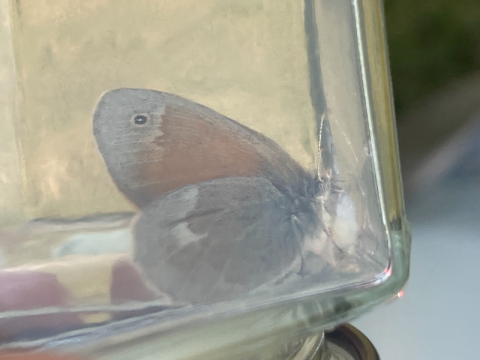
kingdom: Animalia
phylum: Arthropoda
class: Insecta
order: Lepidoptera
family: Nymphalidae
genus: Coenonympha
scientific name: Coenonympha tullia
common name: Large Heath
